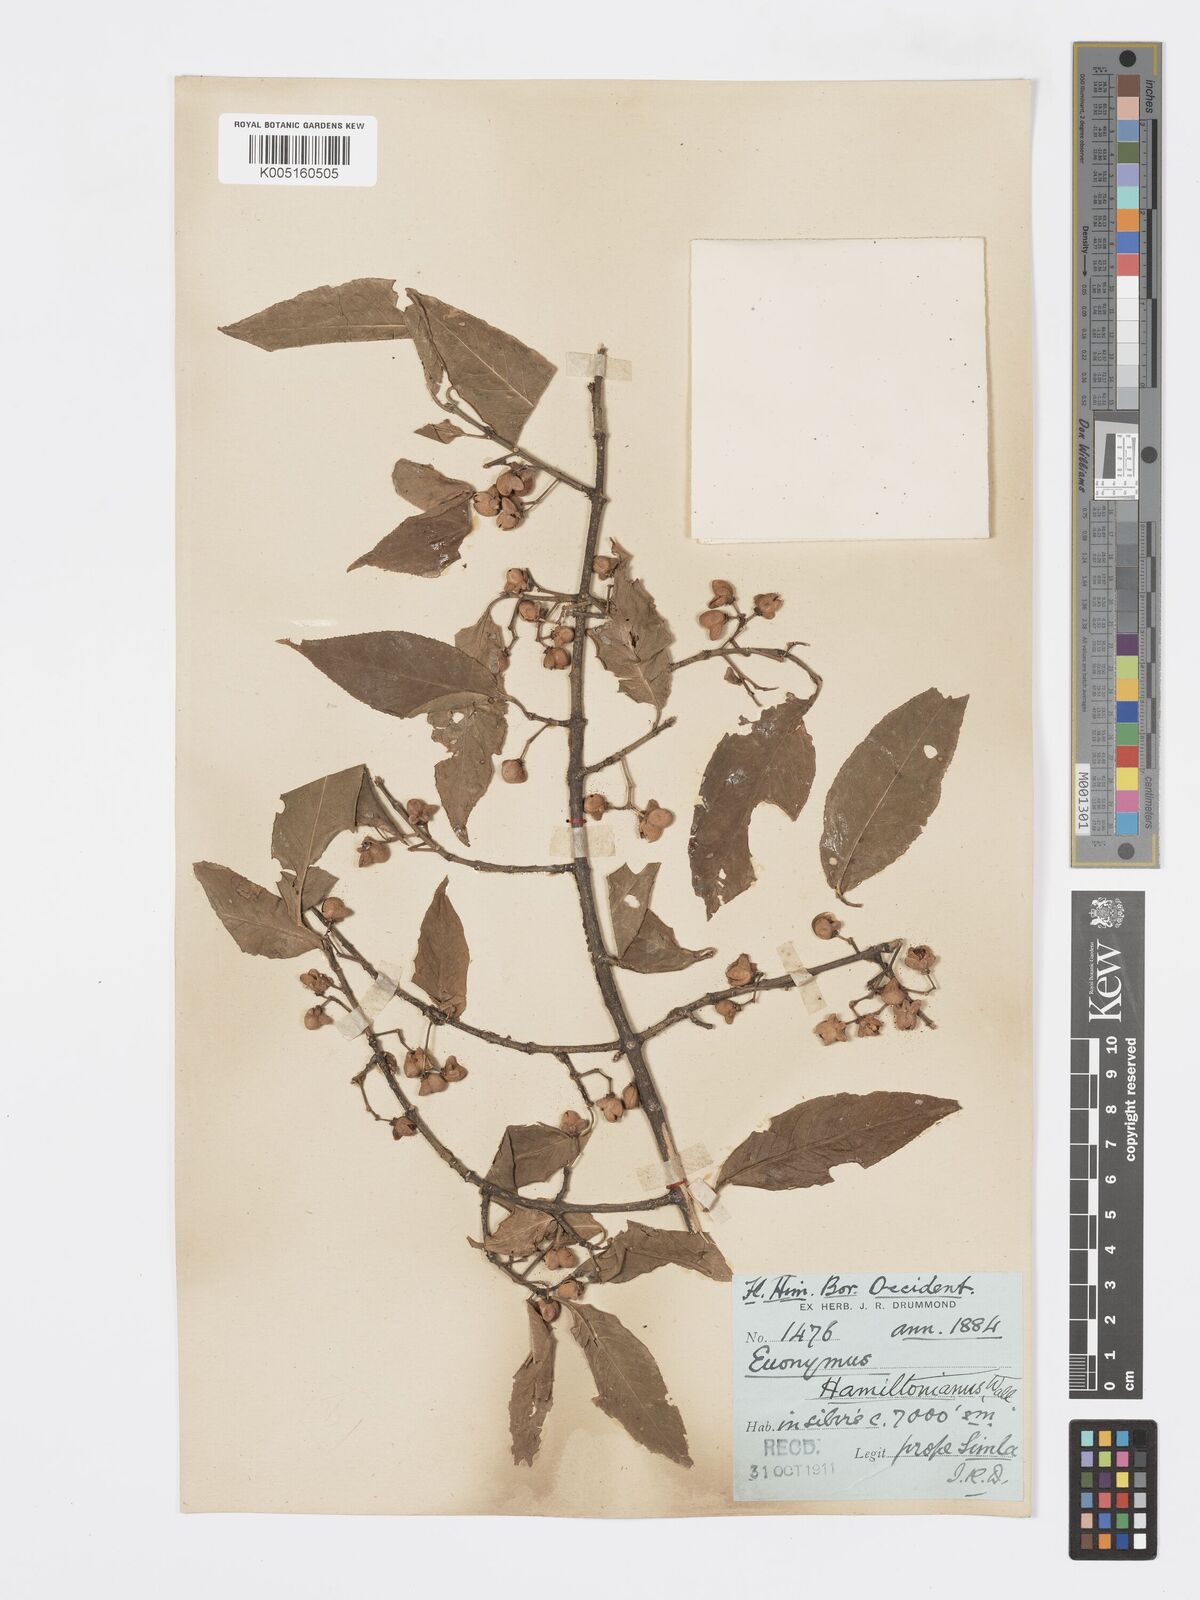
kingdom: Plantae
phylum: Tracheophyta
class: Magnoliopsida
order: Celastrales
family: Celastraceae
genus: Euonymus
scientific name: Euonymus
